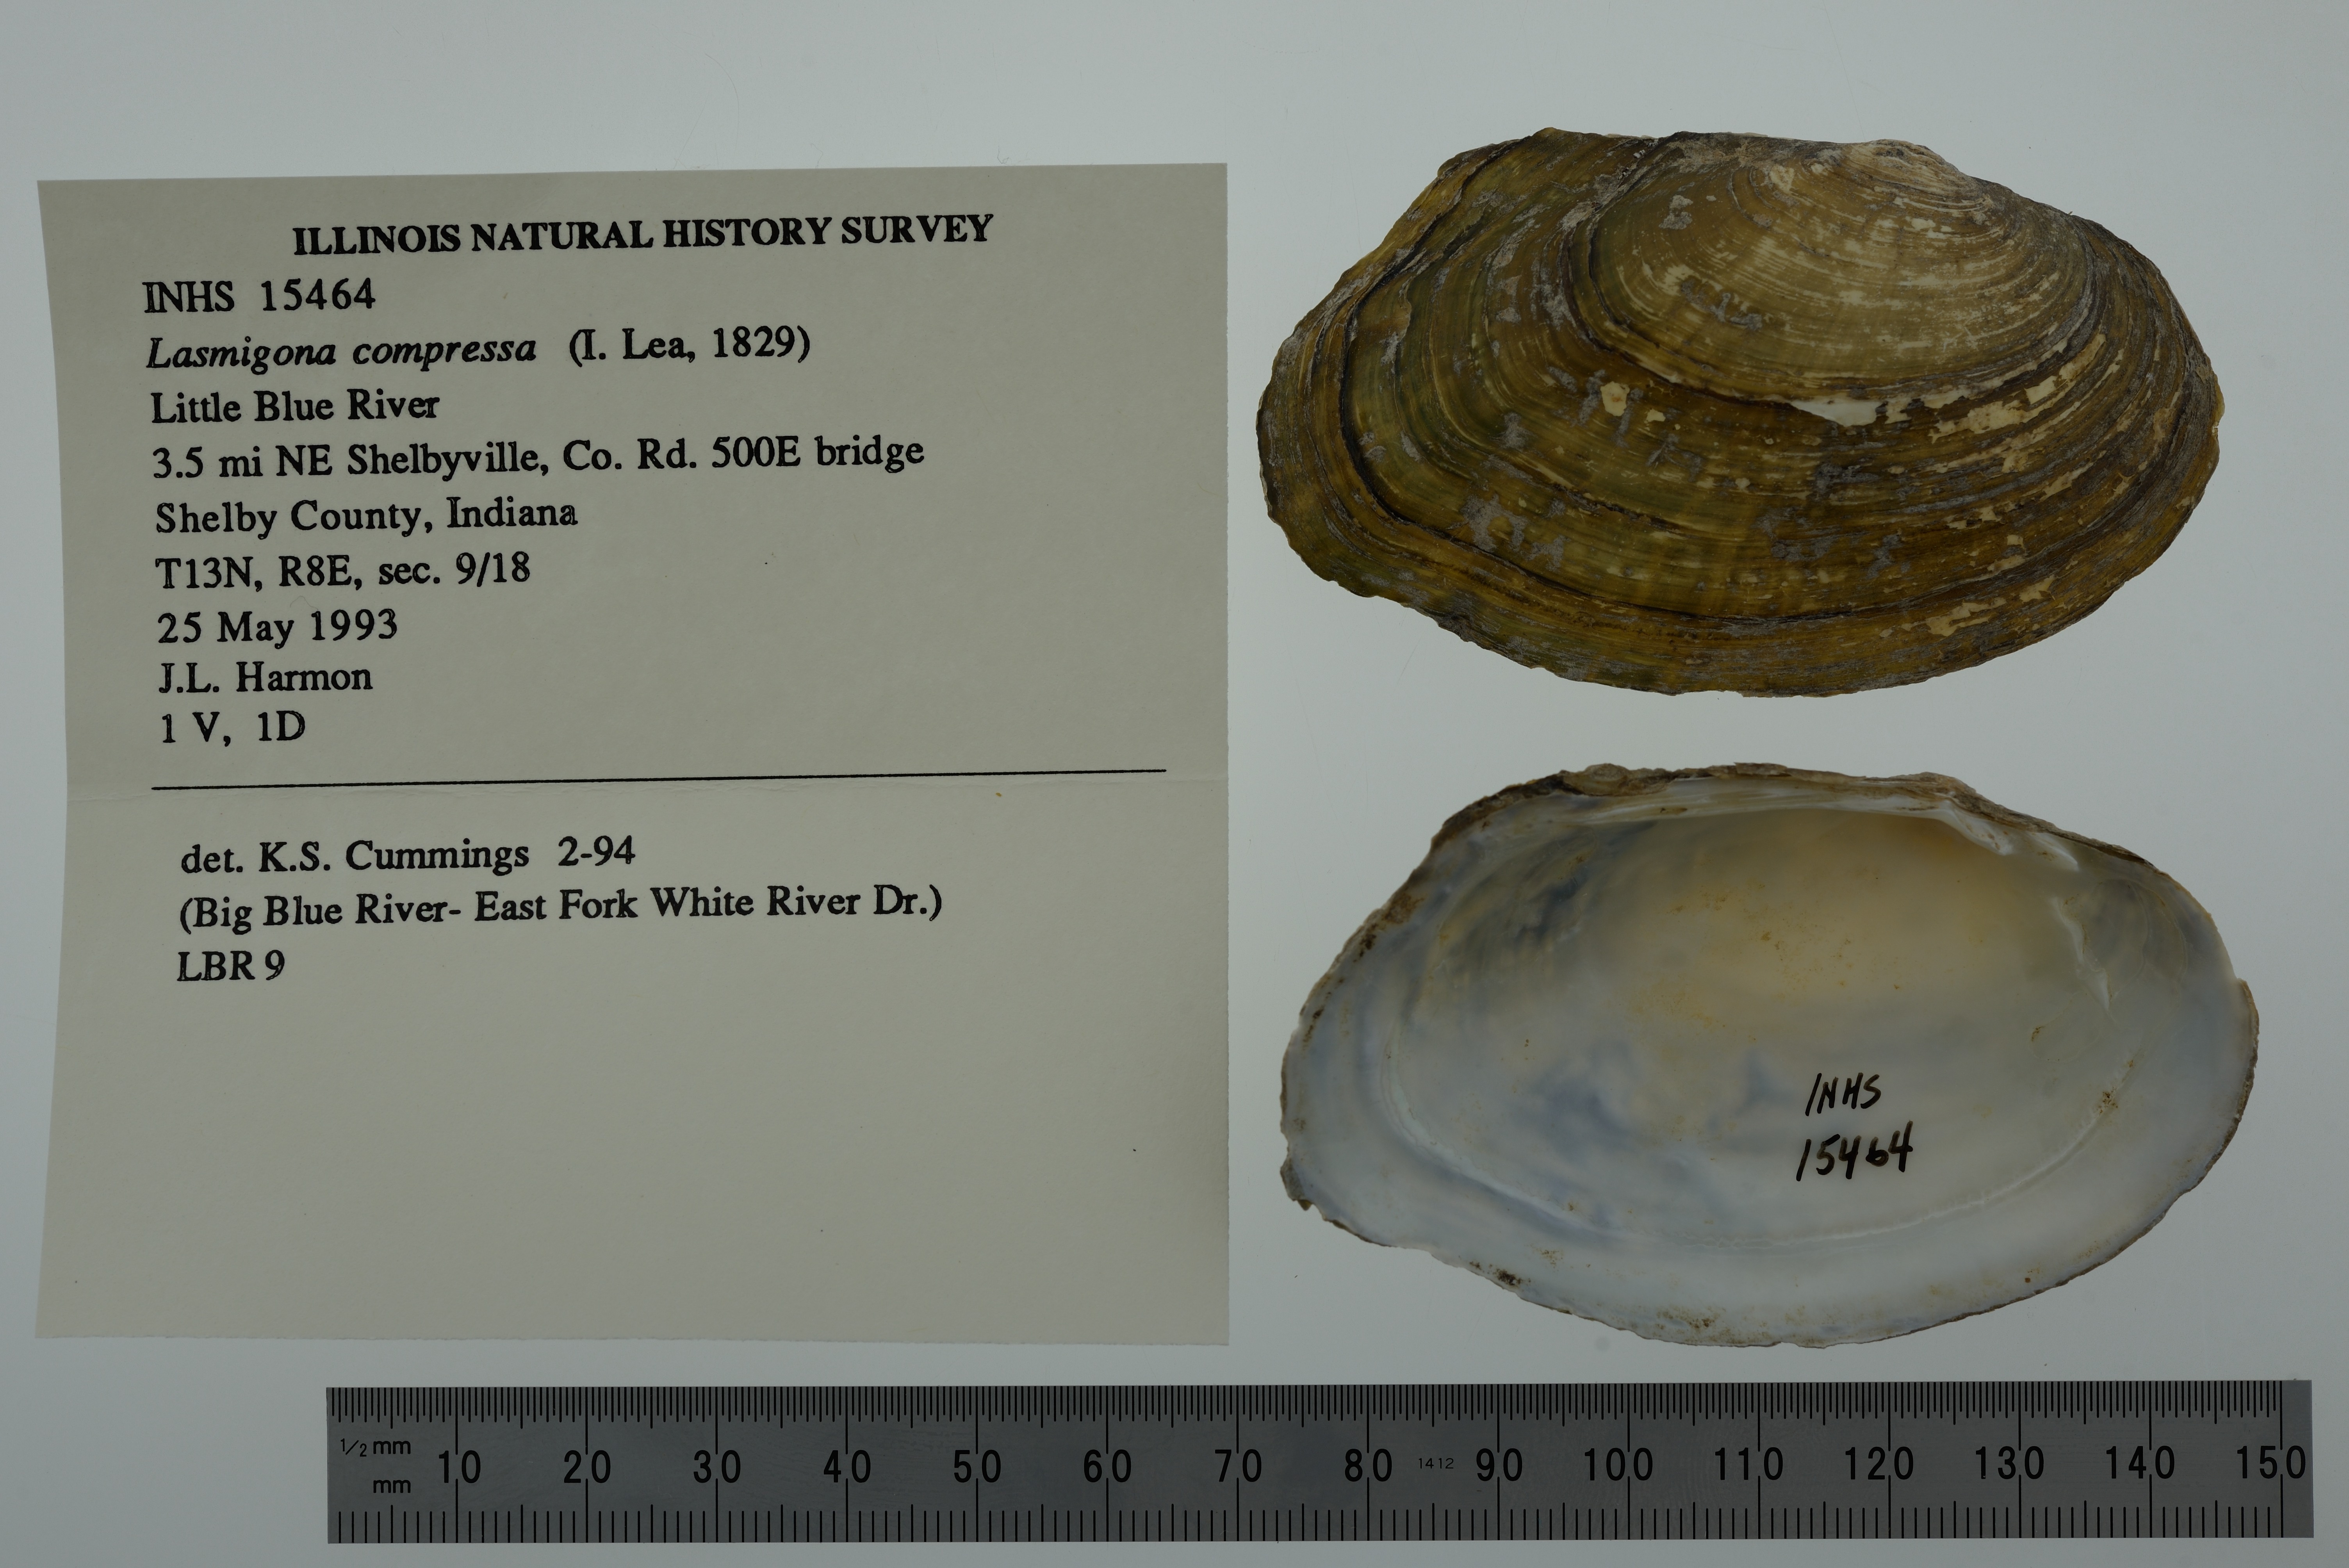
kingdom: Animalia
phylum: Mollusca
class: Bivalvia
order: Unionida
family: Unionidae
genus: Lasmigona
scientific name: Lasmigona compressa
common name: Creek heelsplitter
